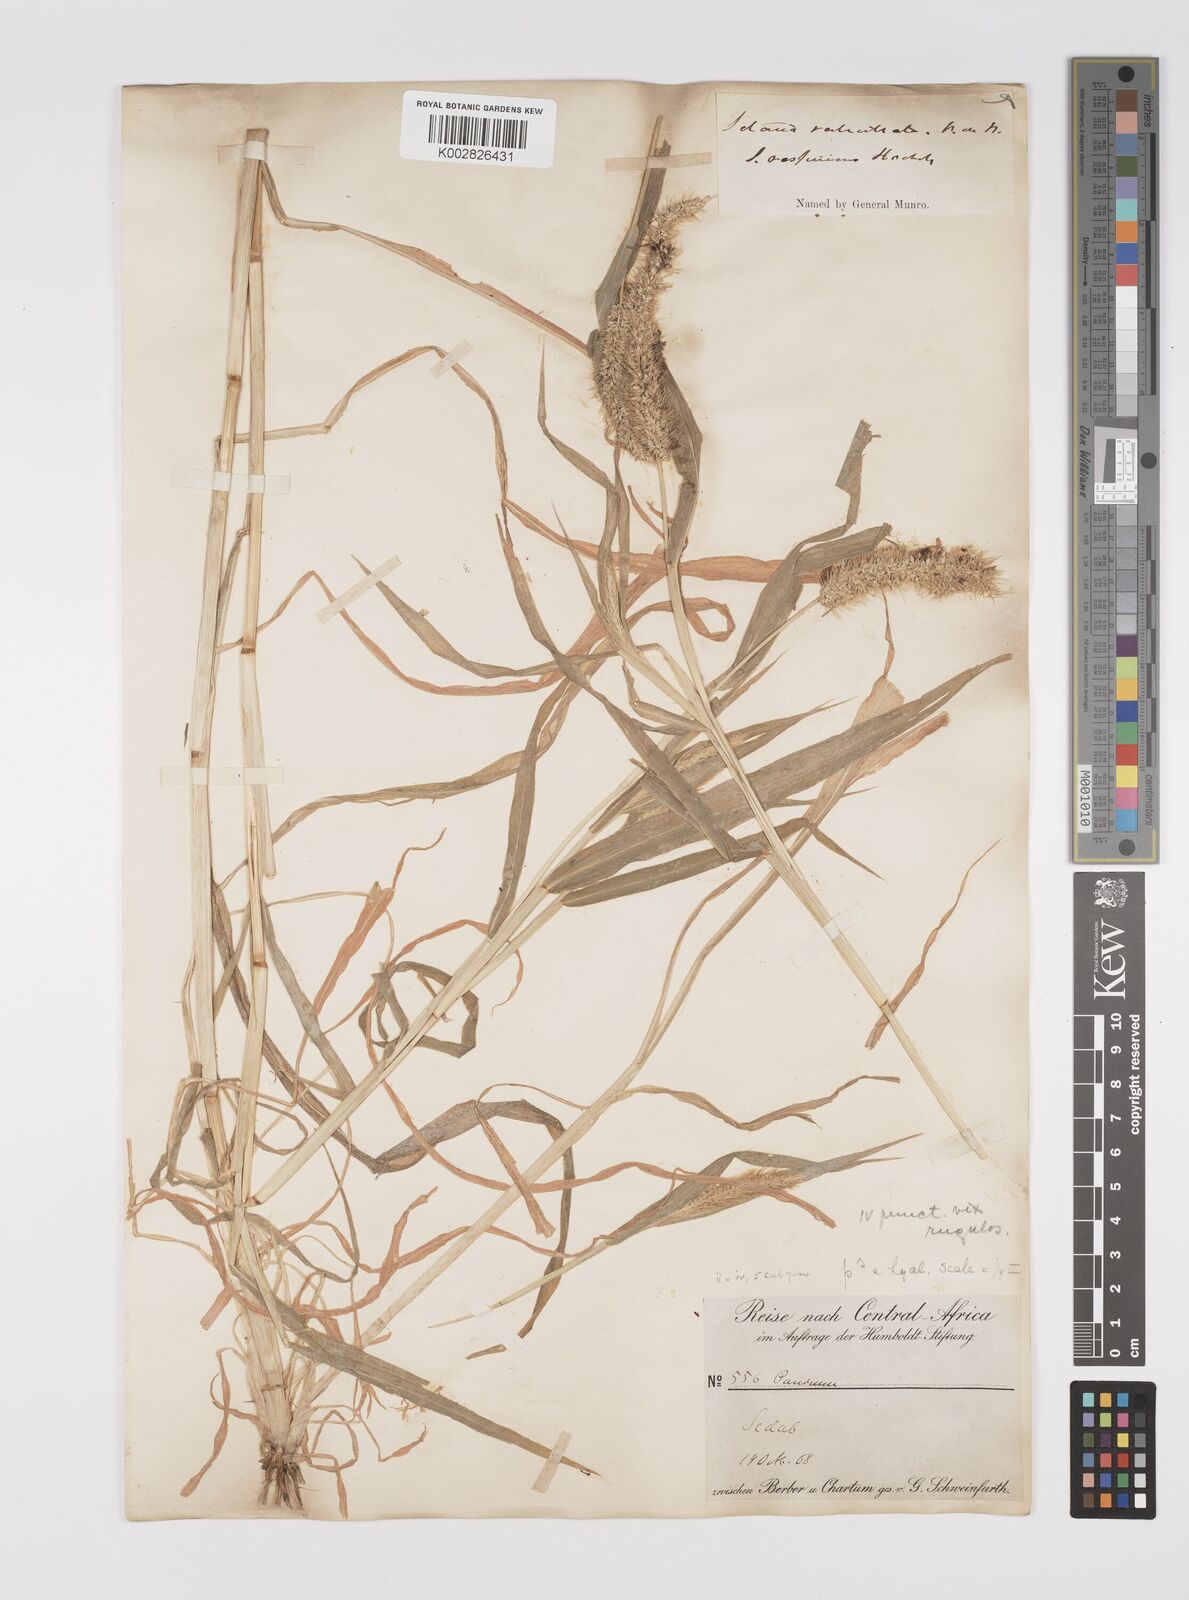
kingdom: Plantae
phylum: Tracheophyta
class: Liliopsida
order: Poales
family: Poaceae
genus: Setaria
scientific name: Setaria verticillata
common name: Hooked bristlegrass
